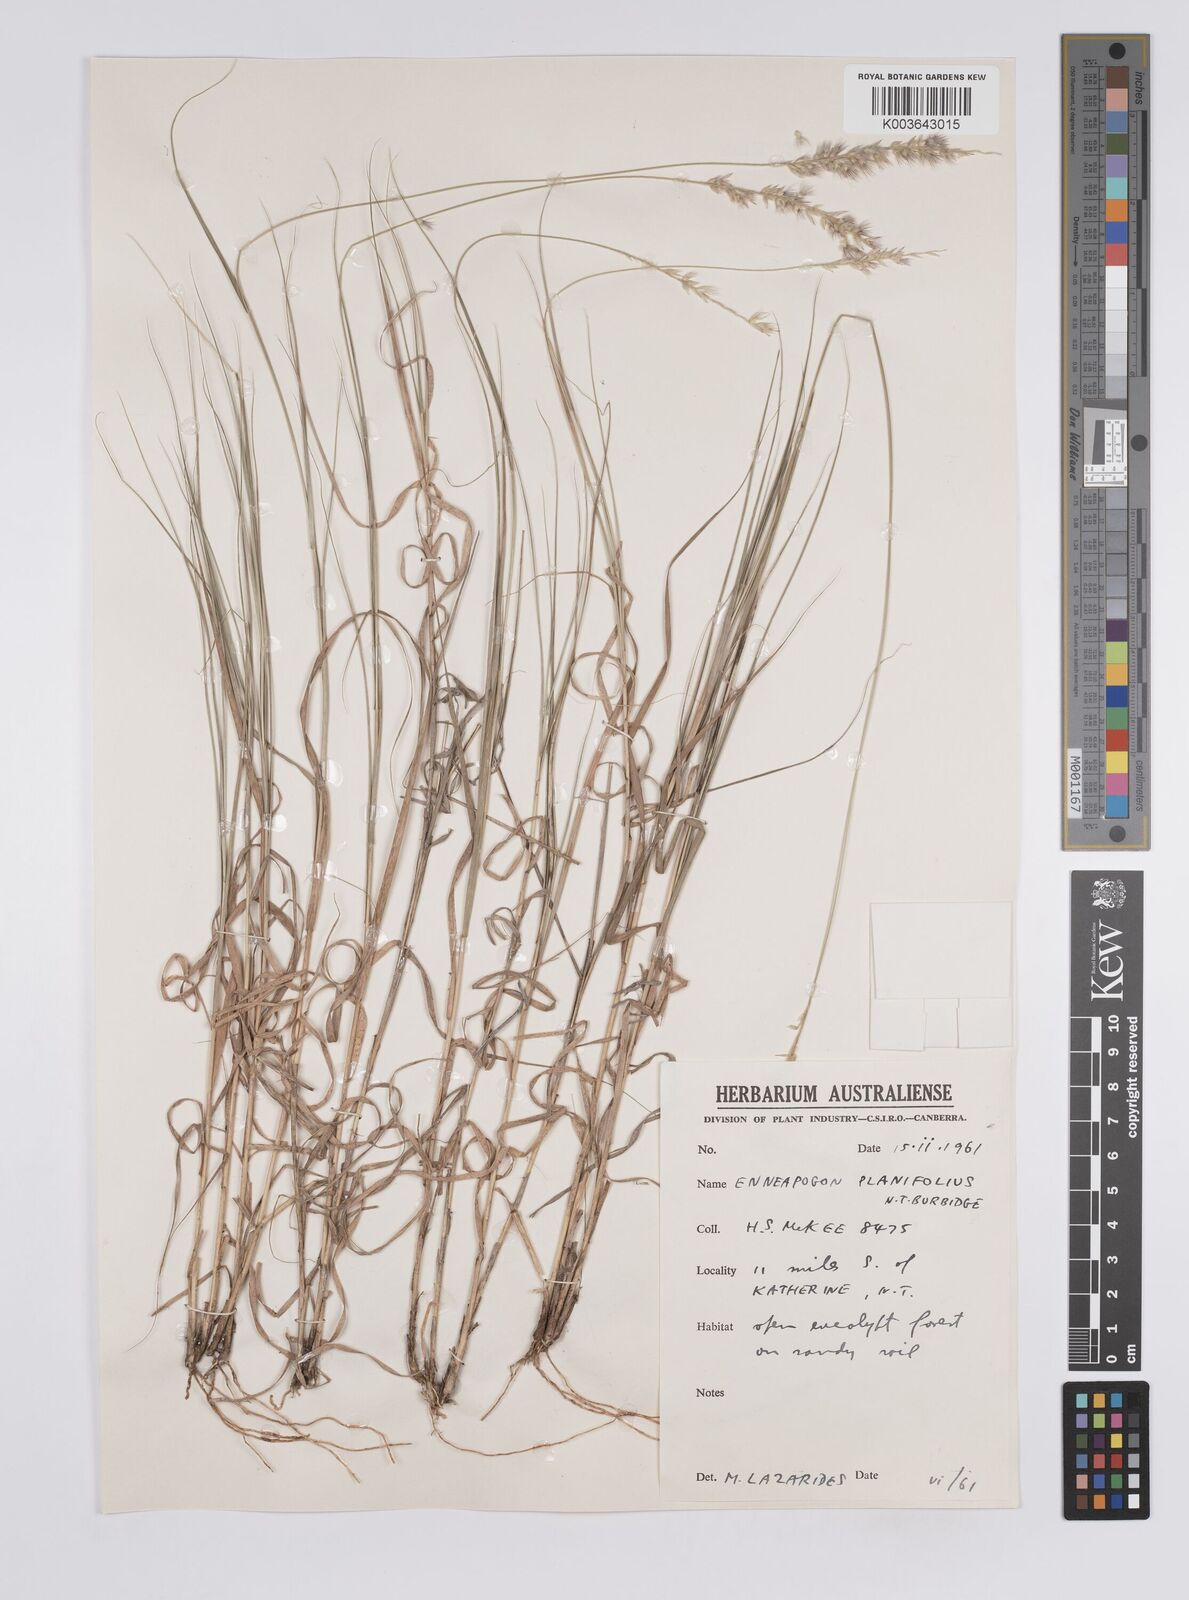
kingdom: Plantae
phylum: Tracheophyta
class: Liliopsida
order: Poales
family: Poaceae
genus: Enneapogon
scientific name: Enneapogon purpurascens
